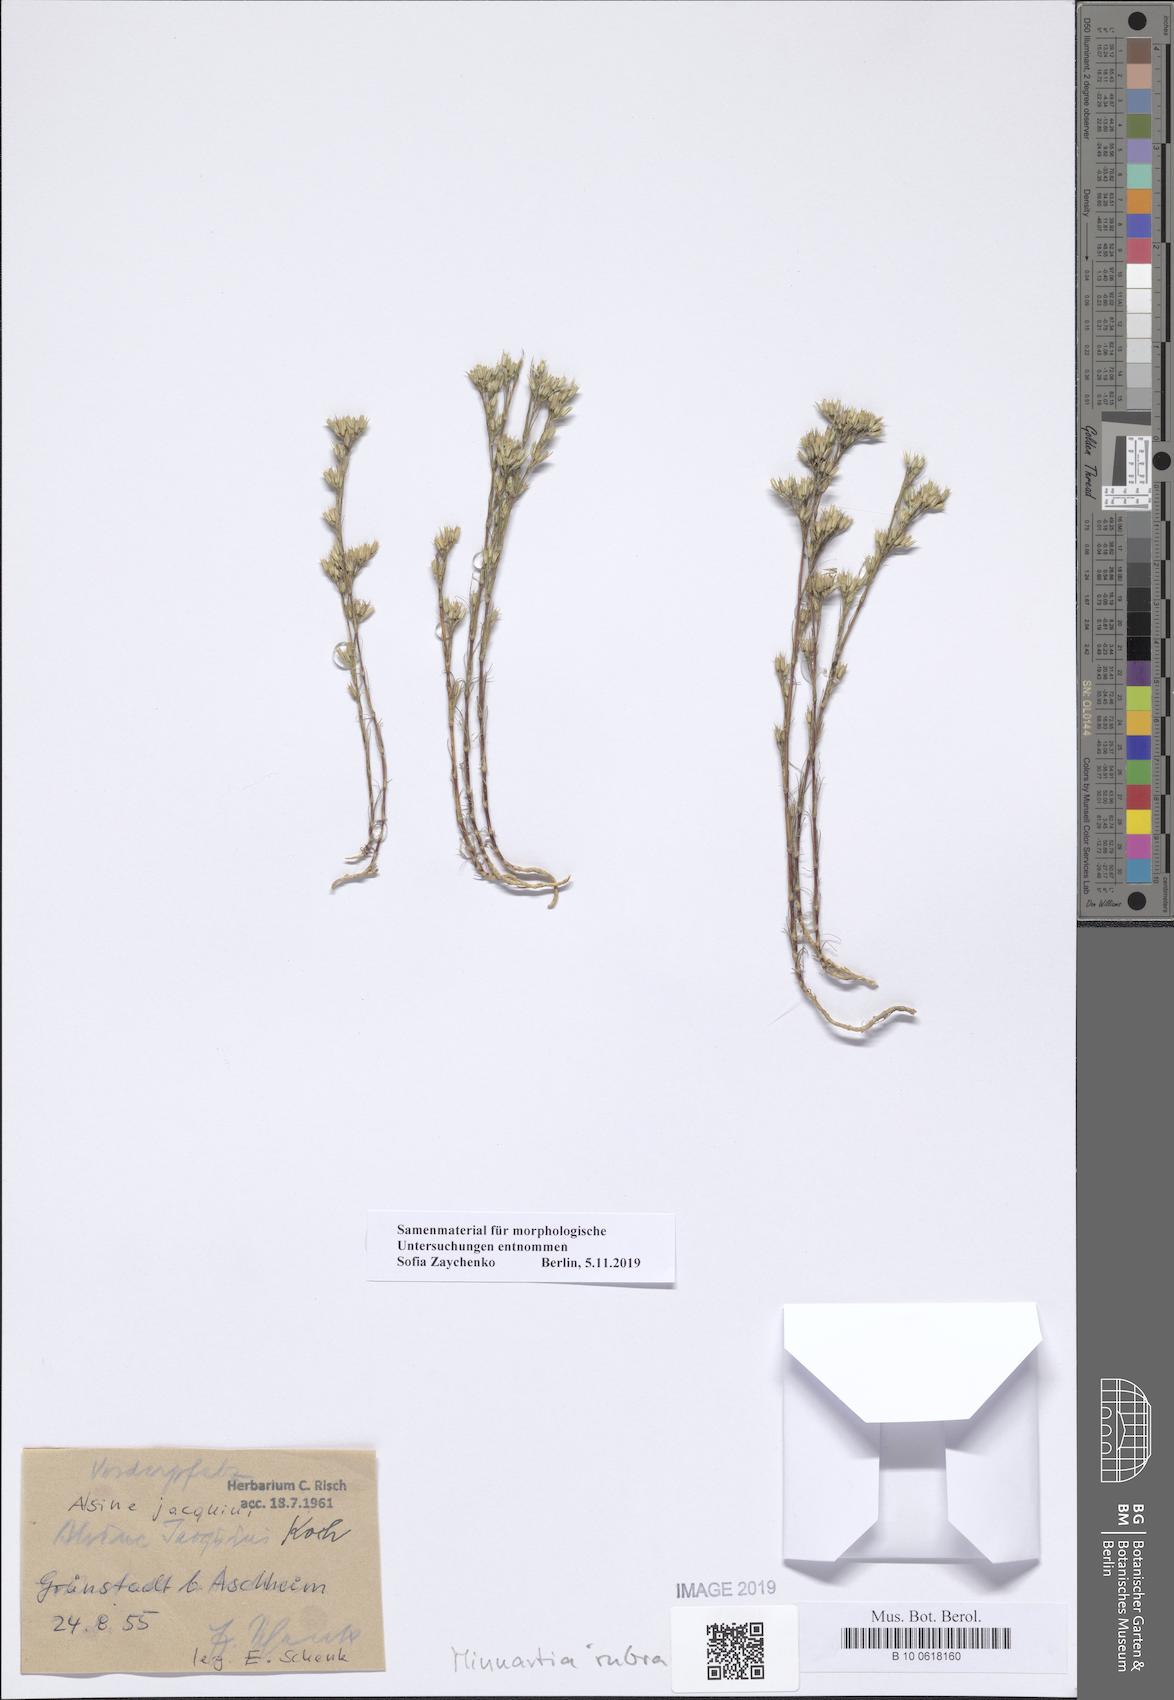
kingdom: Plantae
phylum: Tracheophyta
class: Magnoliopsida
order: Caryophyllales
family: Caryophyllaceae
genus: Minuartia
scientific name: Minuartia mucronata
